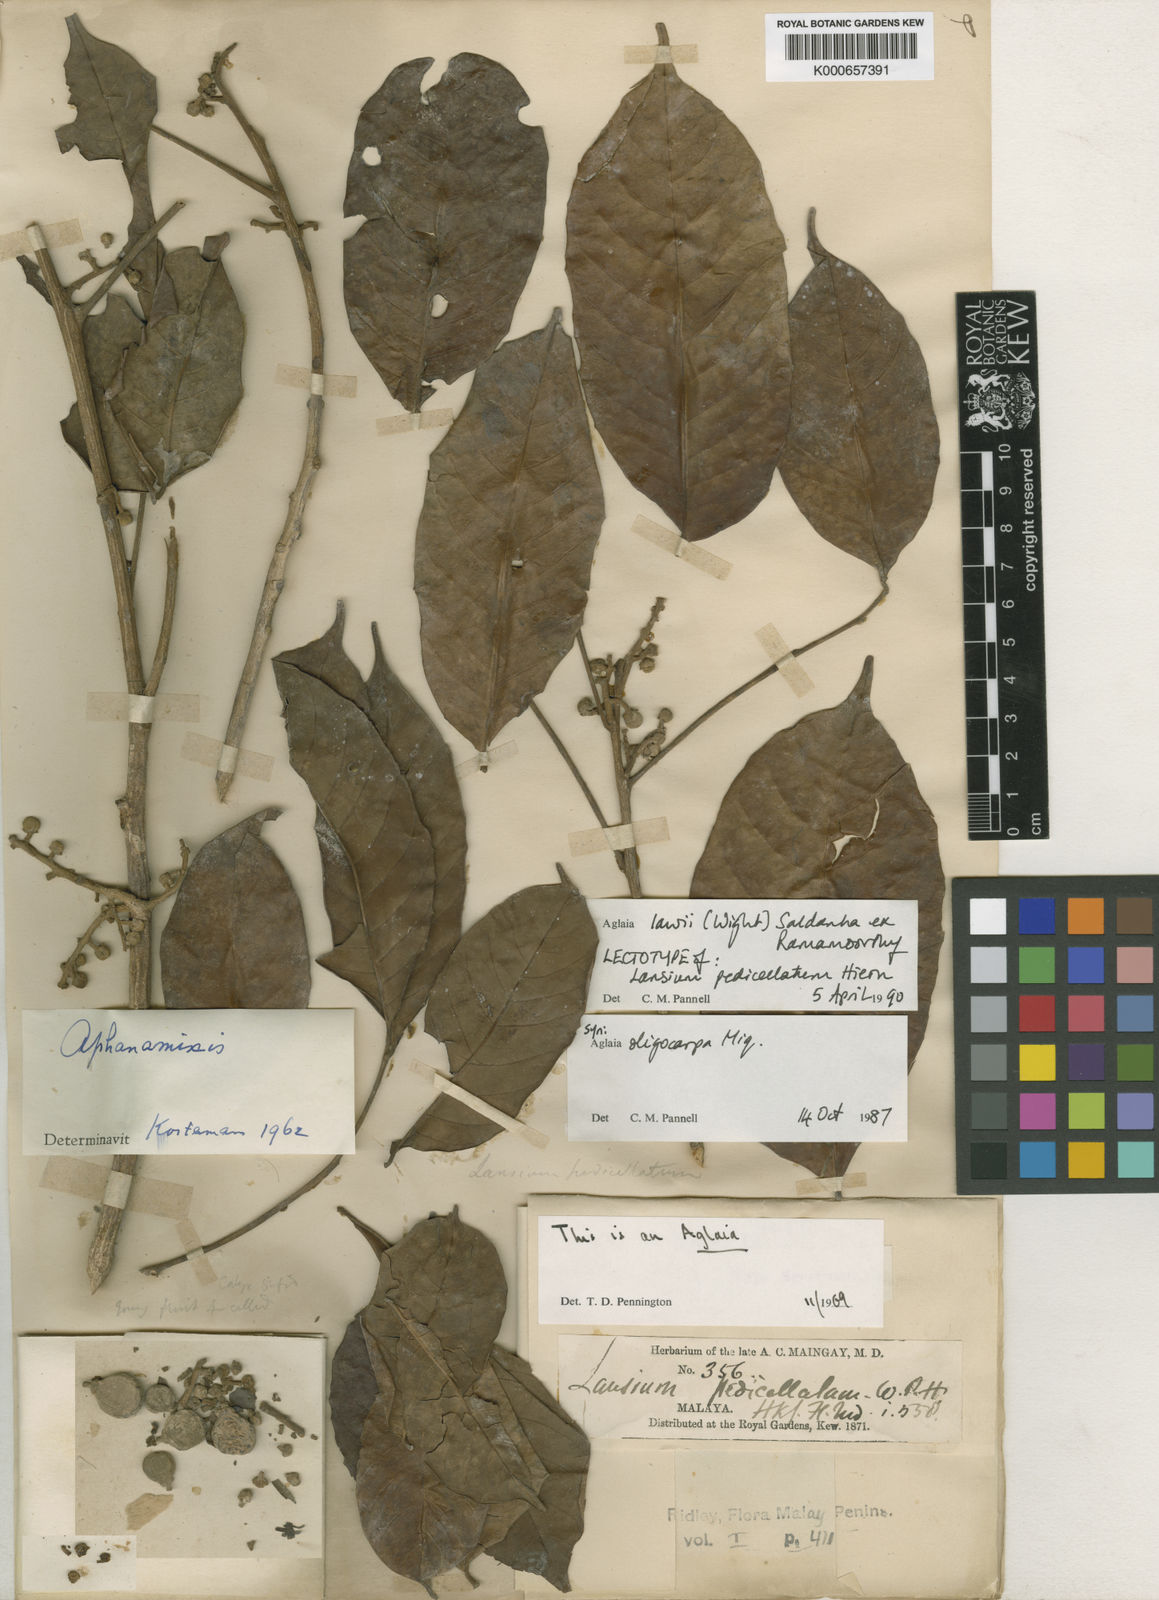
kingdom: Plantae
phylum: Tracheophyta
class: Magnoliopsida
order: Sapindales
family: Meliaceae
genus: Aglaia
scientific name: Aglaia lawii
